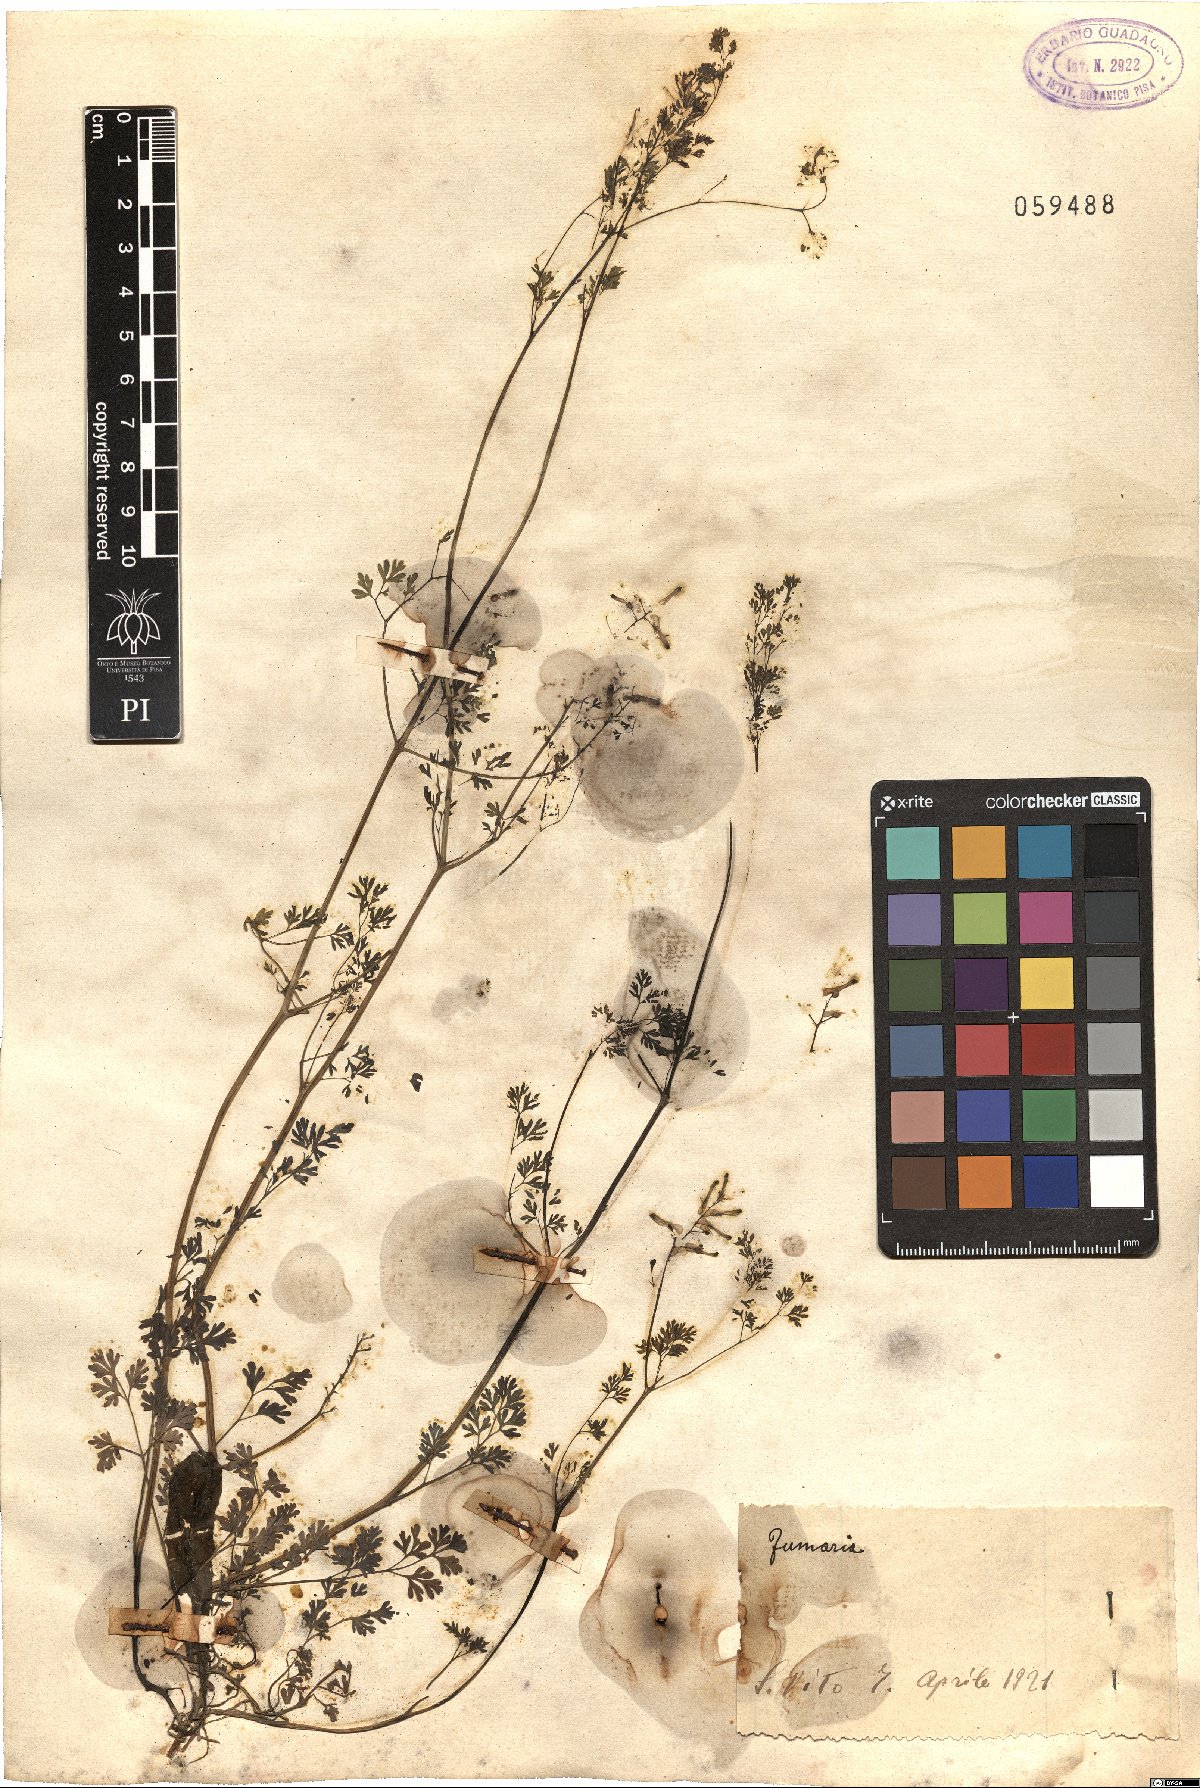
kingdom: Plantae
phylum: Tracheophyta
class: Magnoliopsida
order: Ranunculales
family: Papaveraceae
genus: Fumaria
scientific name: Fumaria
